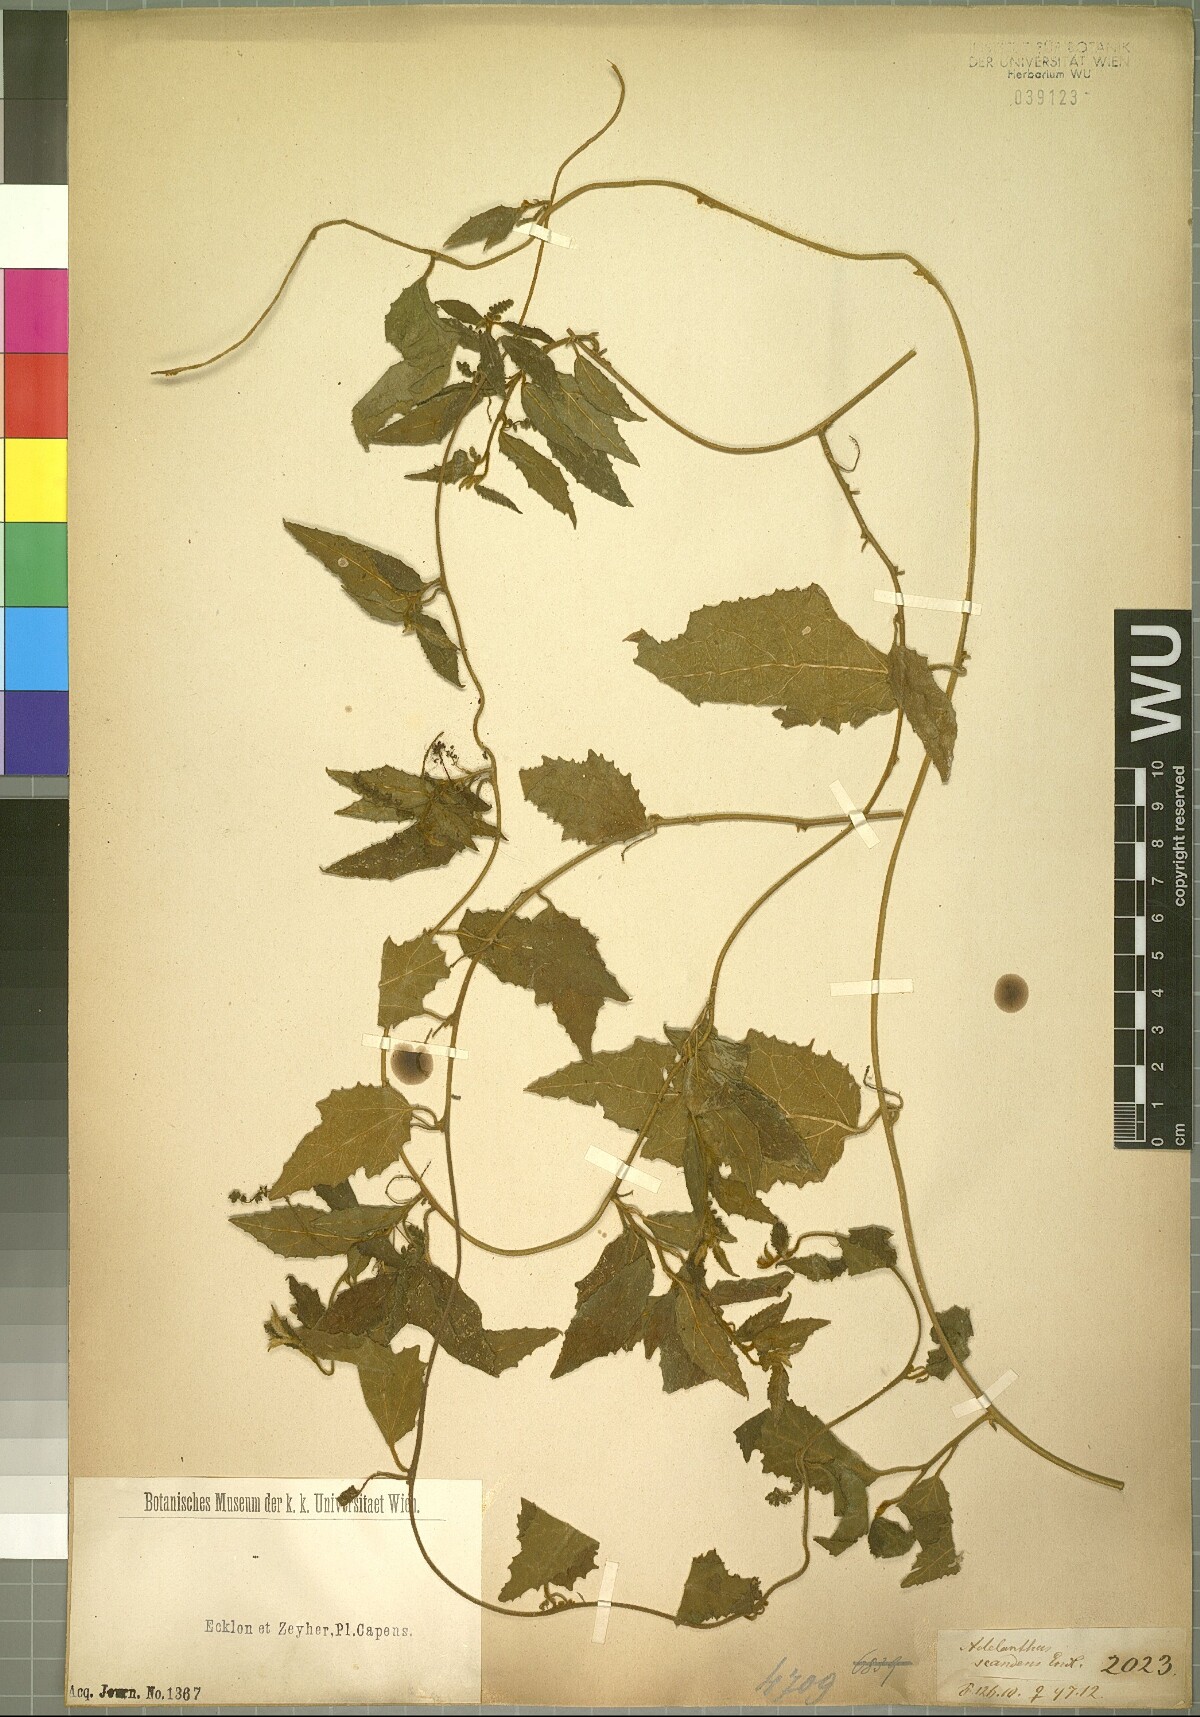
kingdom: Plantae
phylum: Tracheophyta
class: Magnoliopsida
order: Icacinales
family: Icacinaceae
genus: Pyrenacantha
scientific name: Pyrenacantha scandens
